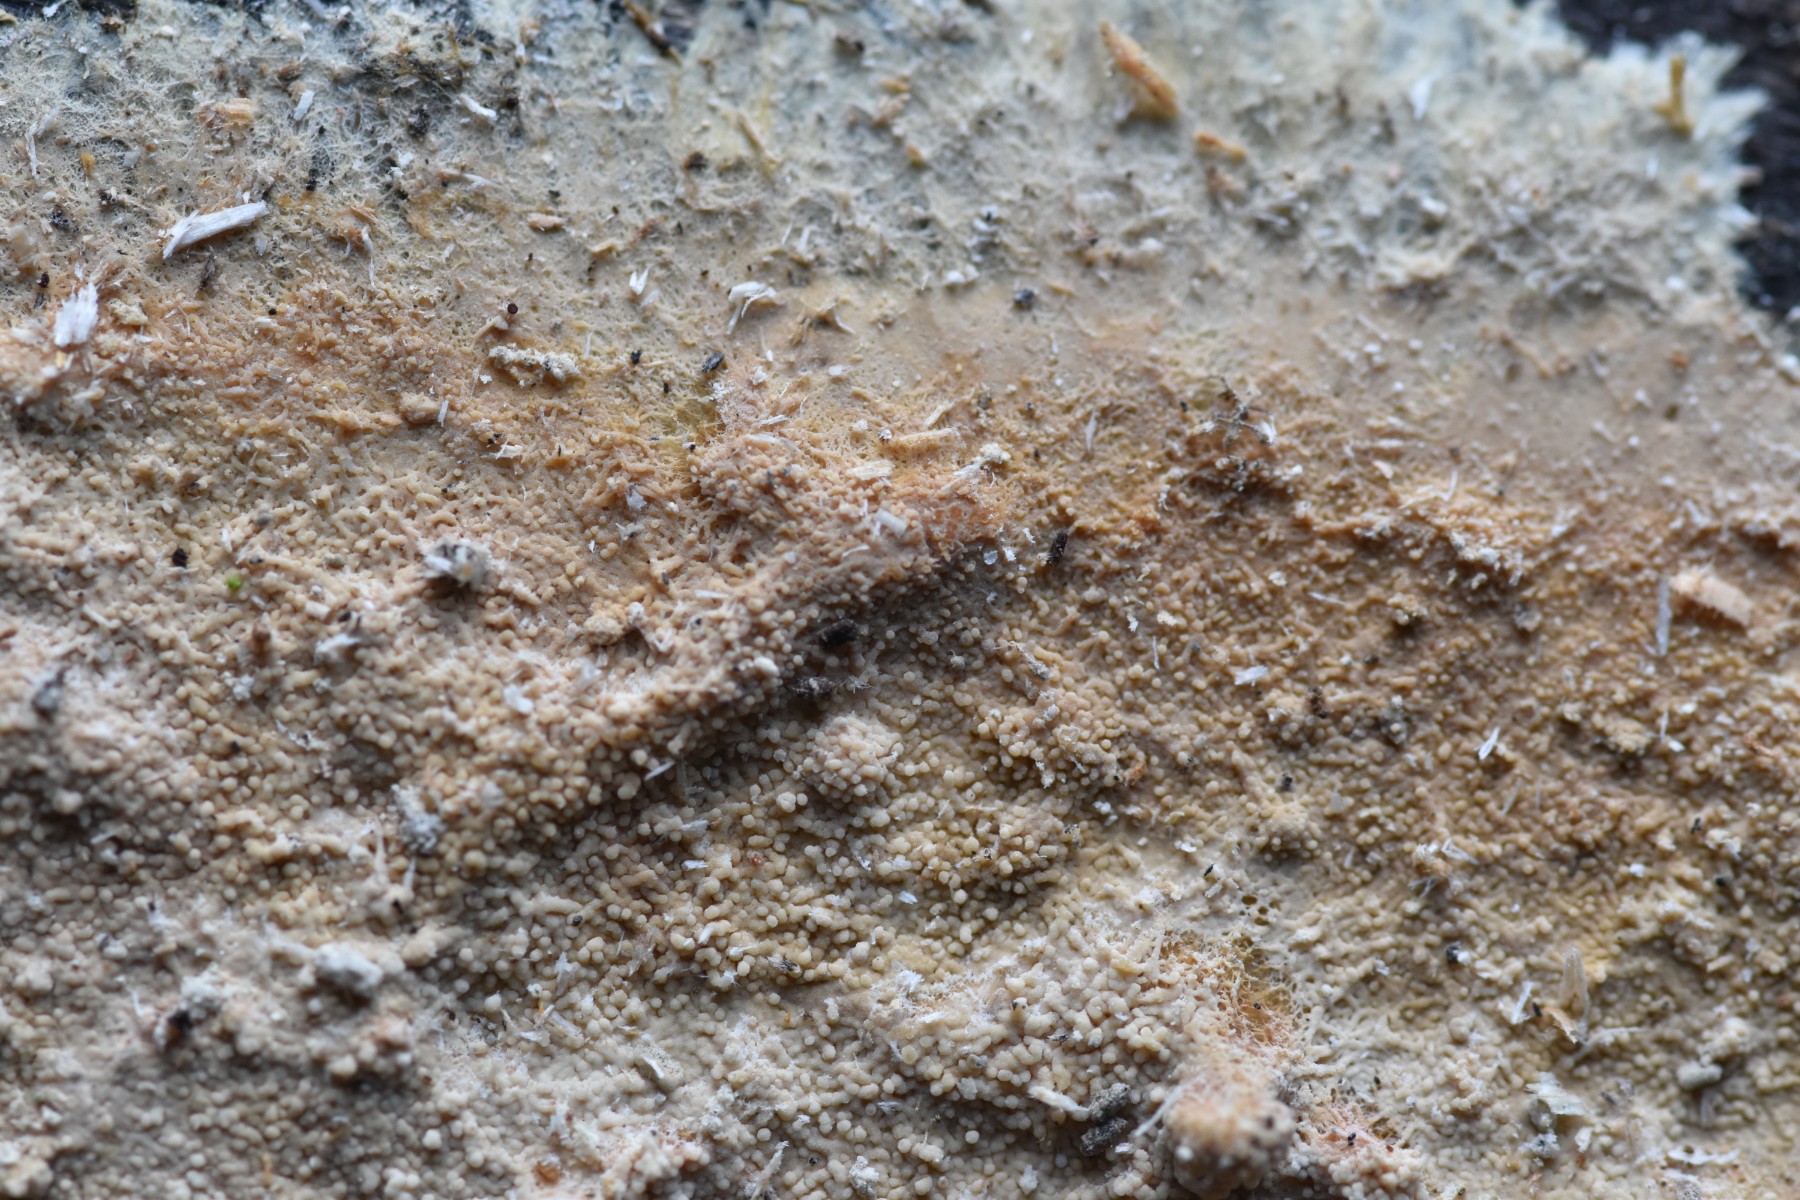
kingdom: Fungi
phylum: Basidiomycota
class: Agaricomycetes
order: Trechisporales
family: Sistotremataceae
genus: Trechispora
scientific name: Trechispora farinacea
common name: pigget vathinde
